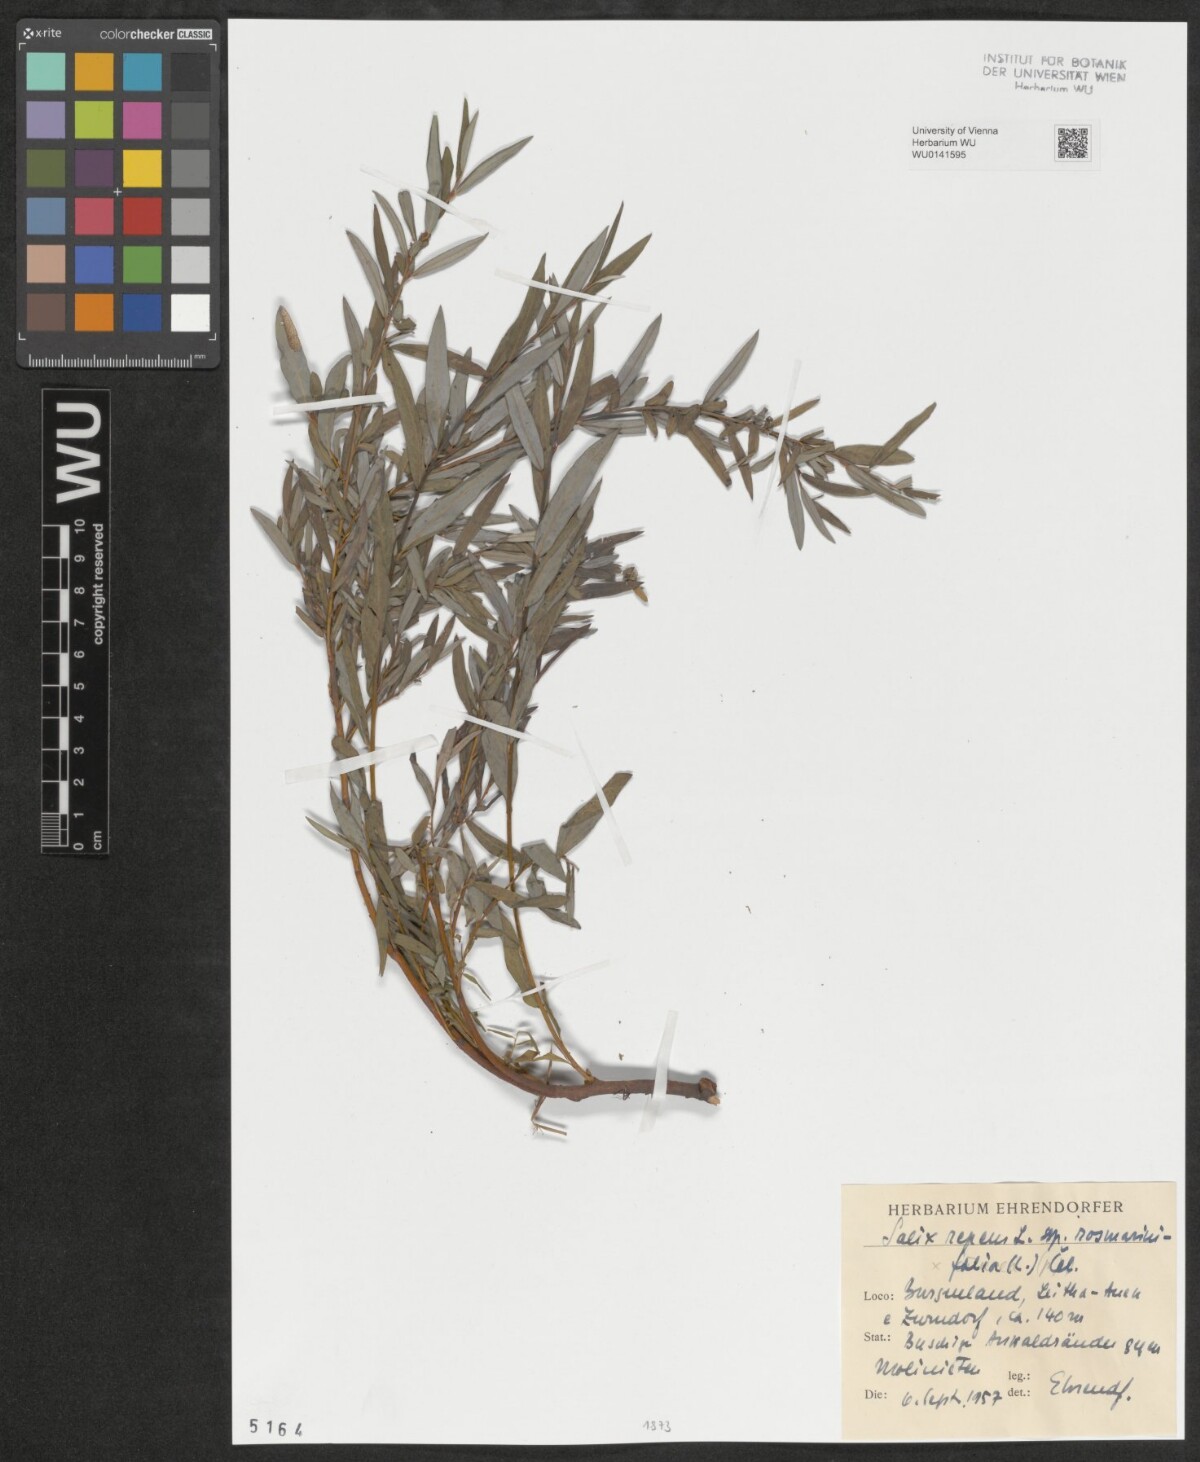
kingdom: Plantae
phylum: Tracheophyta
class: Magnoliopsida
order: Malpighiales
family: Salicaceae
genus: Salix
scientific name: Salix repens
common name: Creeping willow
